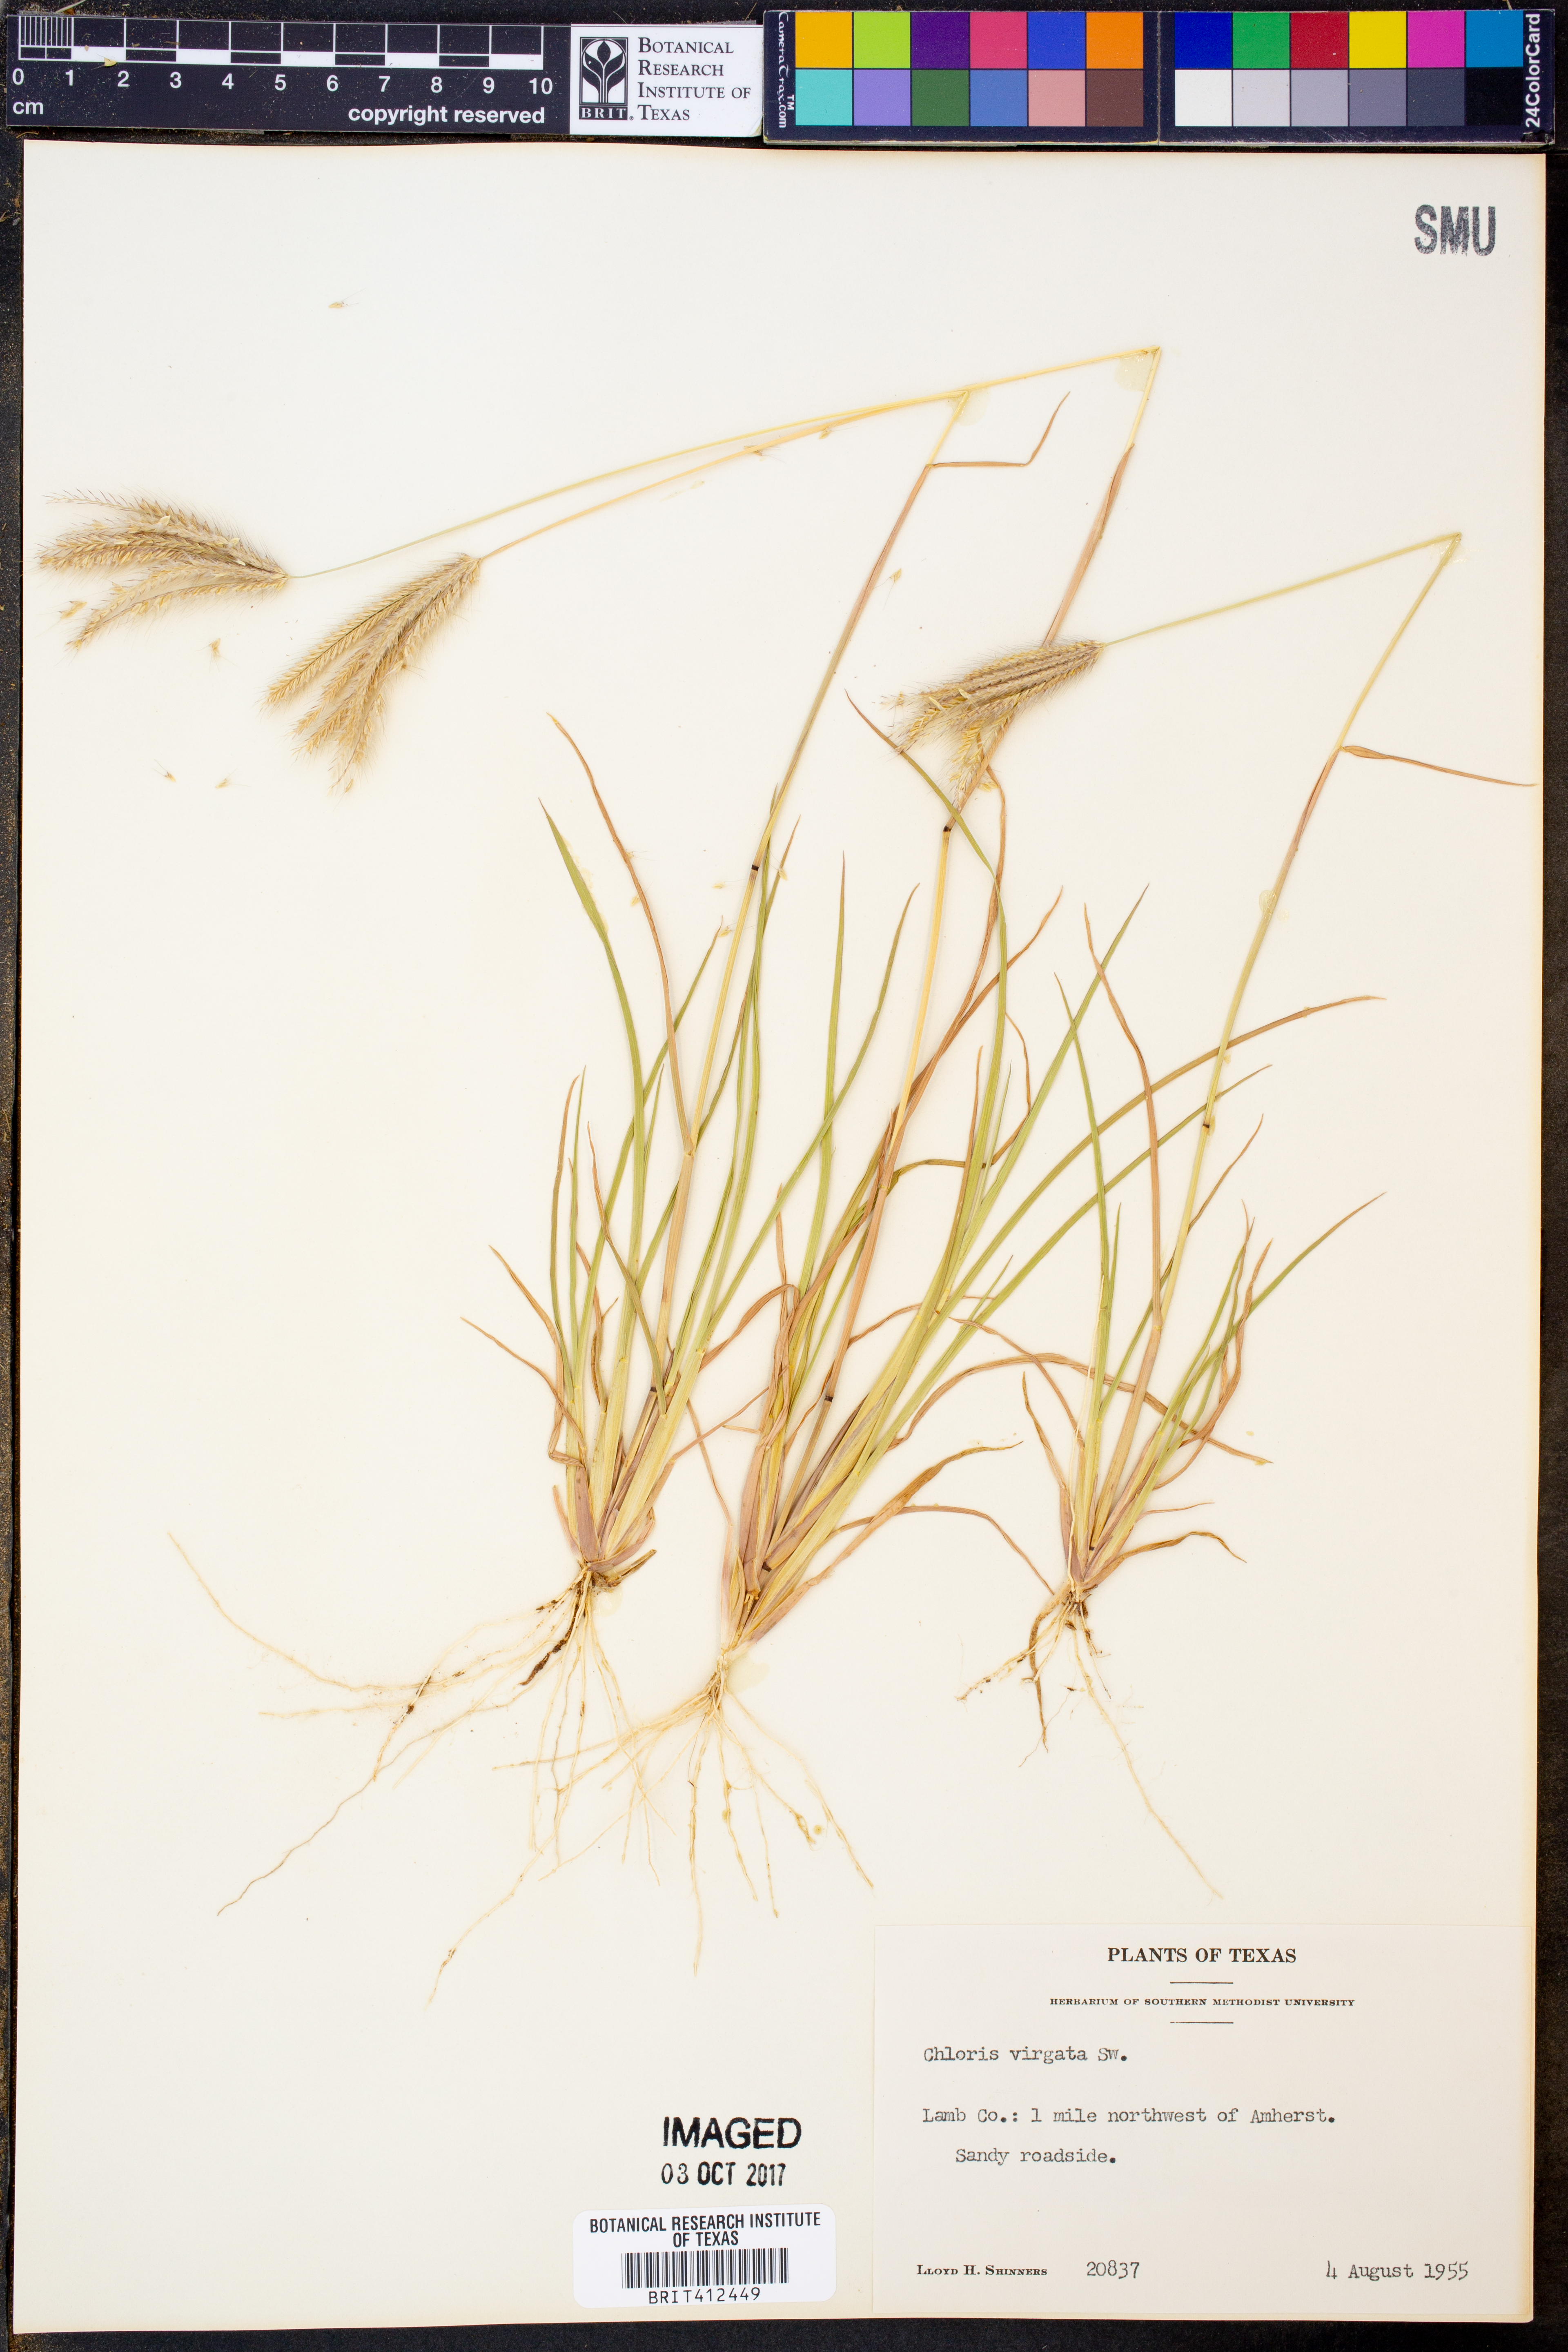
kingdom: Plantae
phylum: Tracheophyta
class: Liliopsida
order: Poales
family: Poaceae
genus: Chloris
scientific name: Chloris virgata
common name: Feathery rhodes-grass
